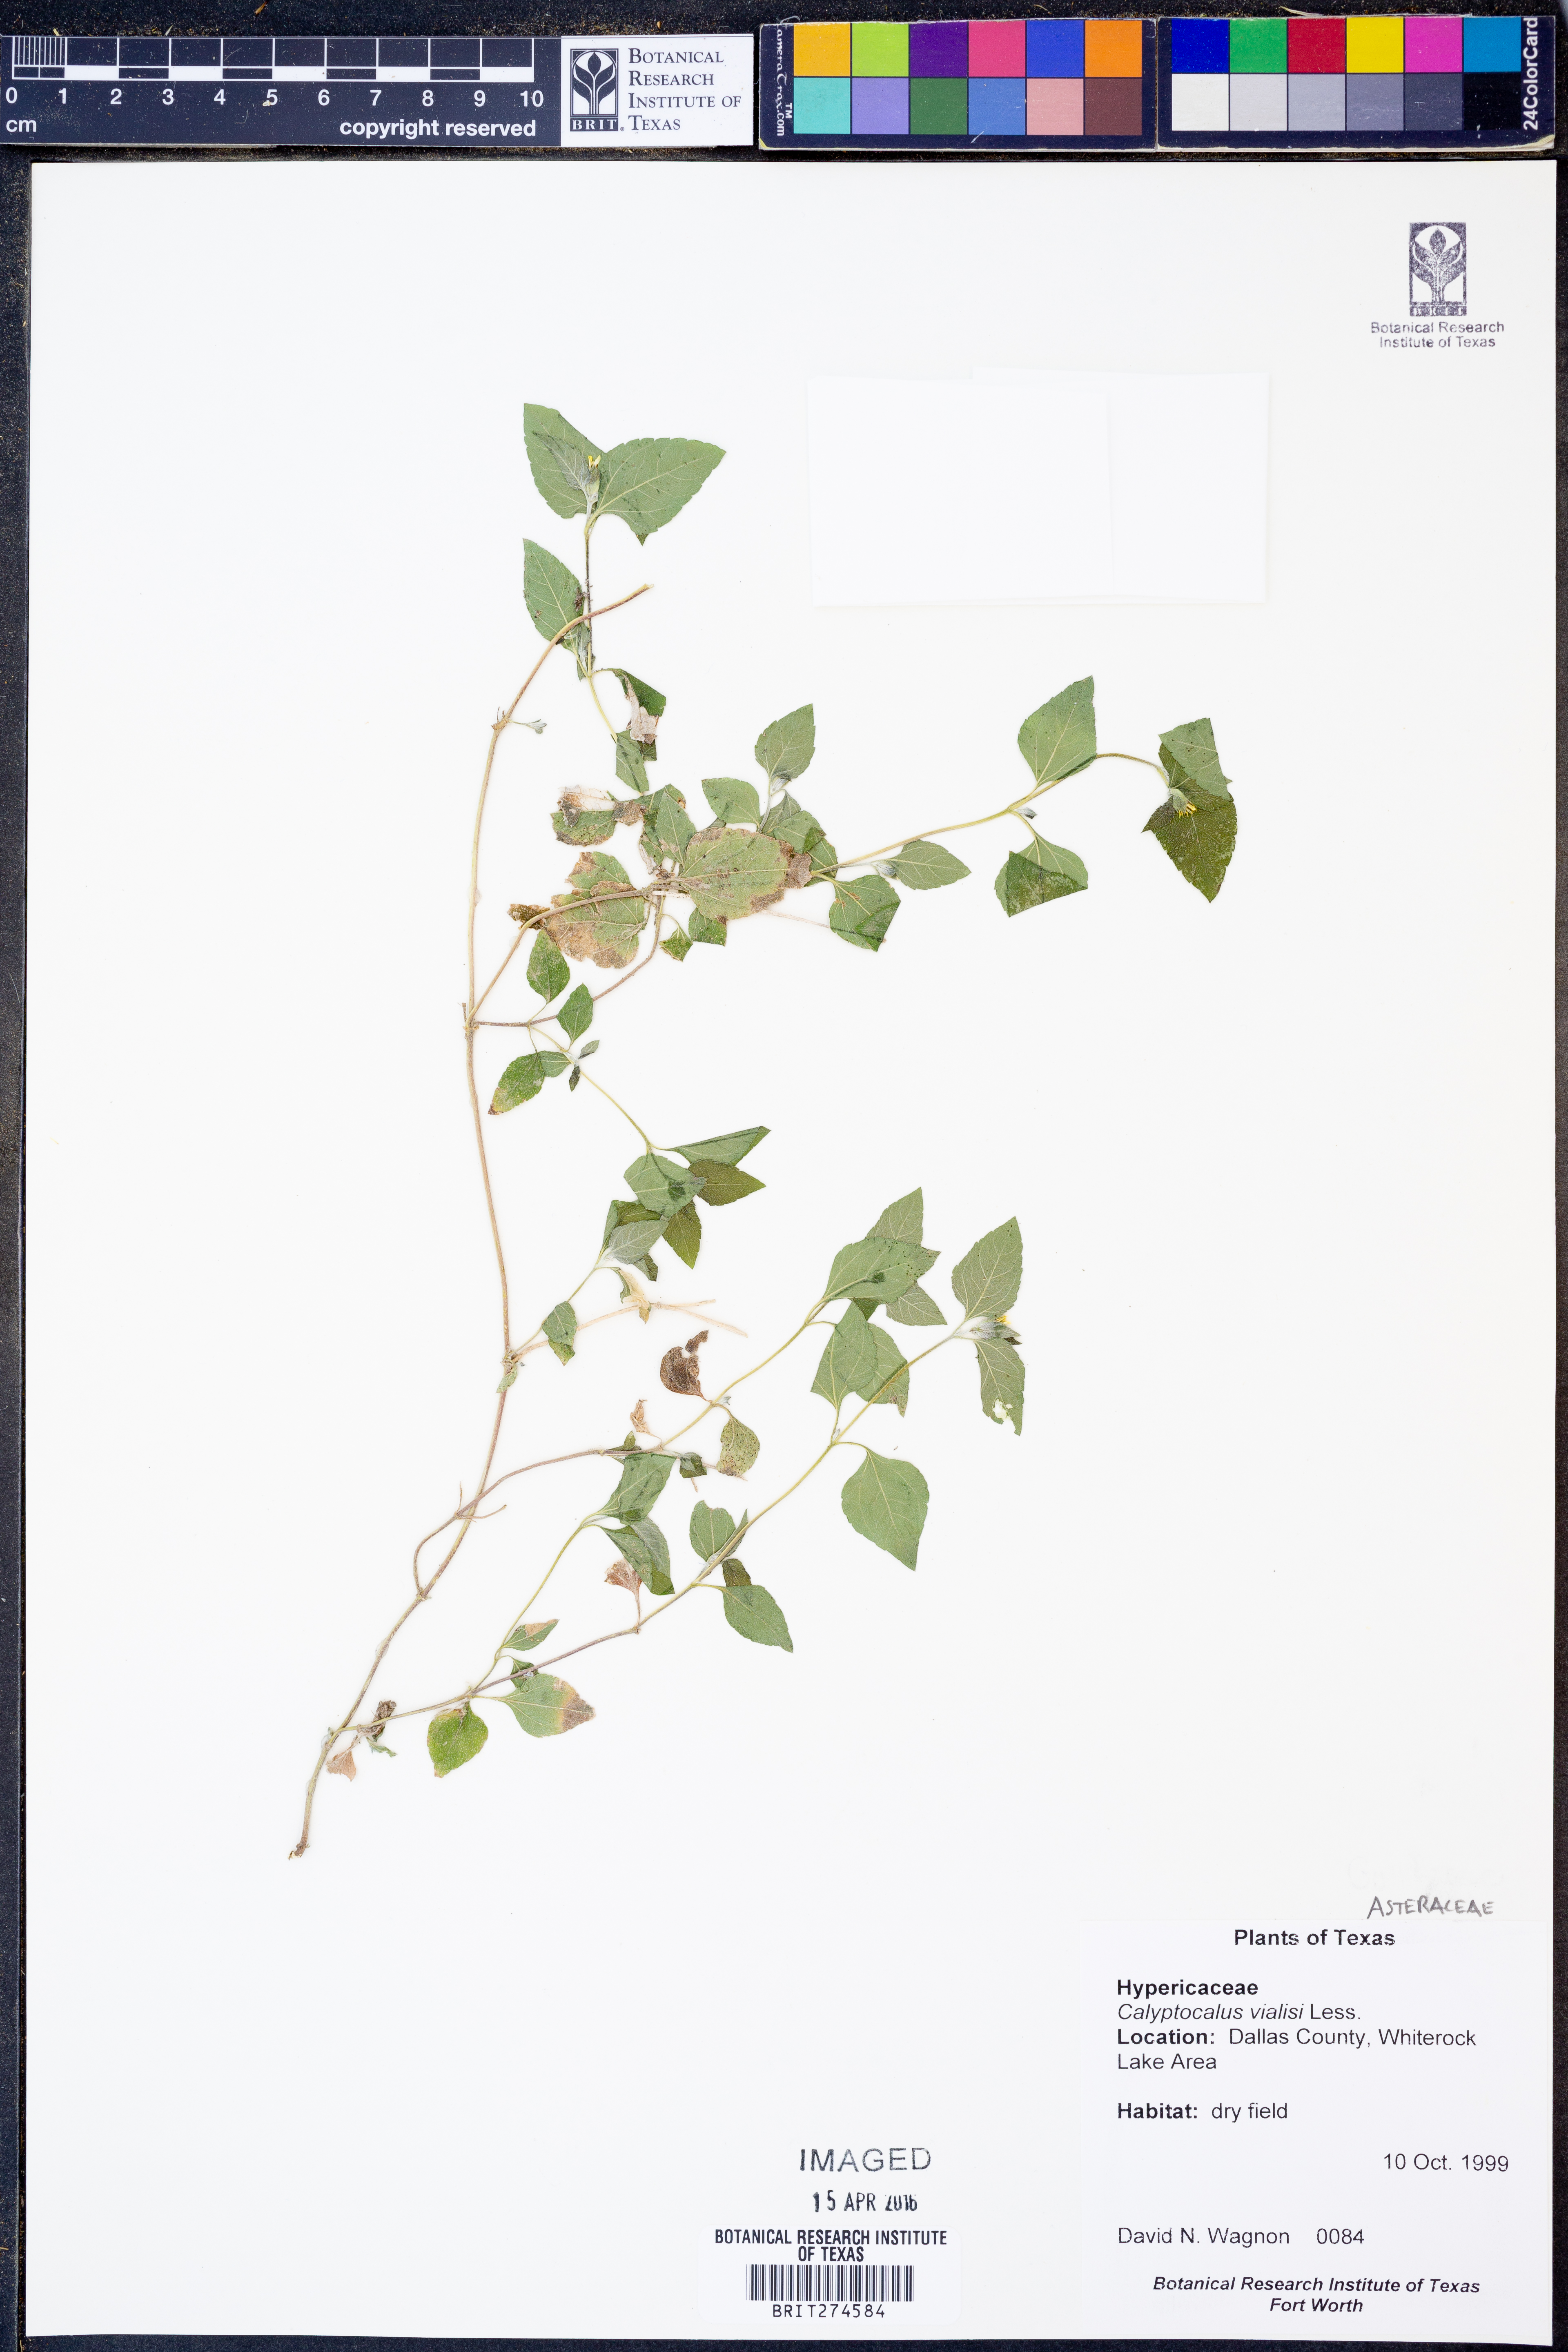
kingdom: Plantae
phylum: Tracheophyta
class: Magnoliopsida
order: Asterales
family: Asteraceae
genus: Calyptocarpus
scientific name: Calyptocarpus vialis
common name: Straggler daisy
